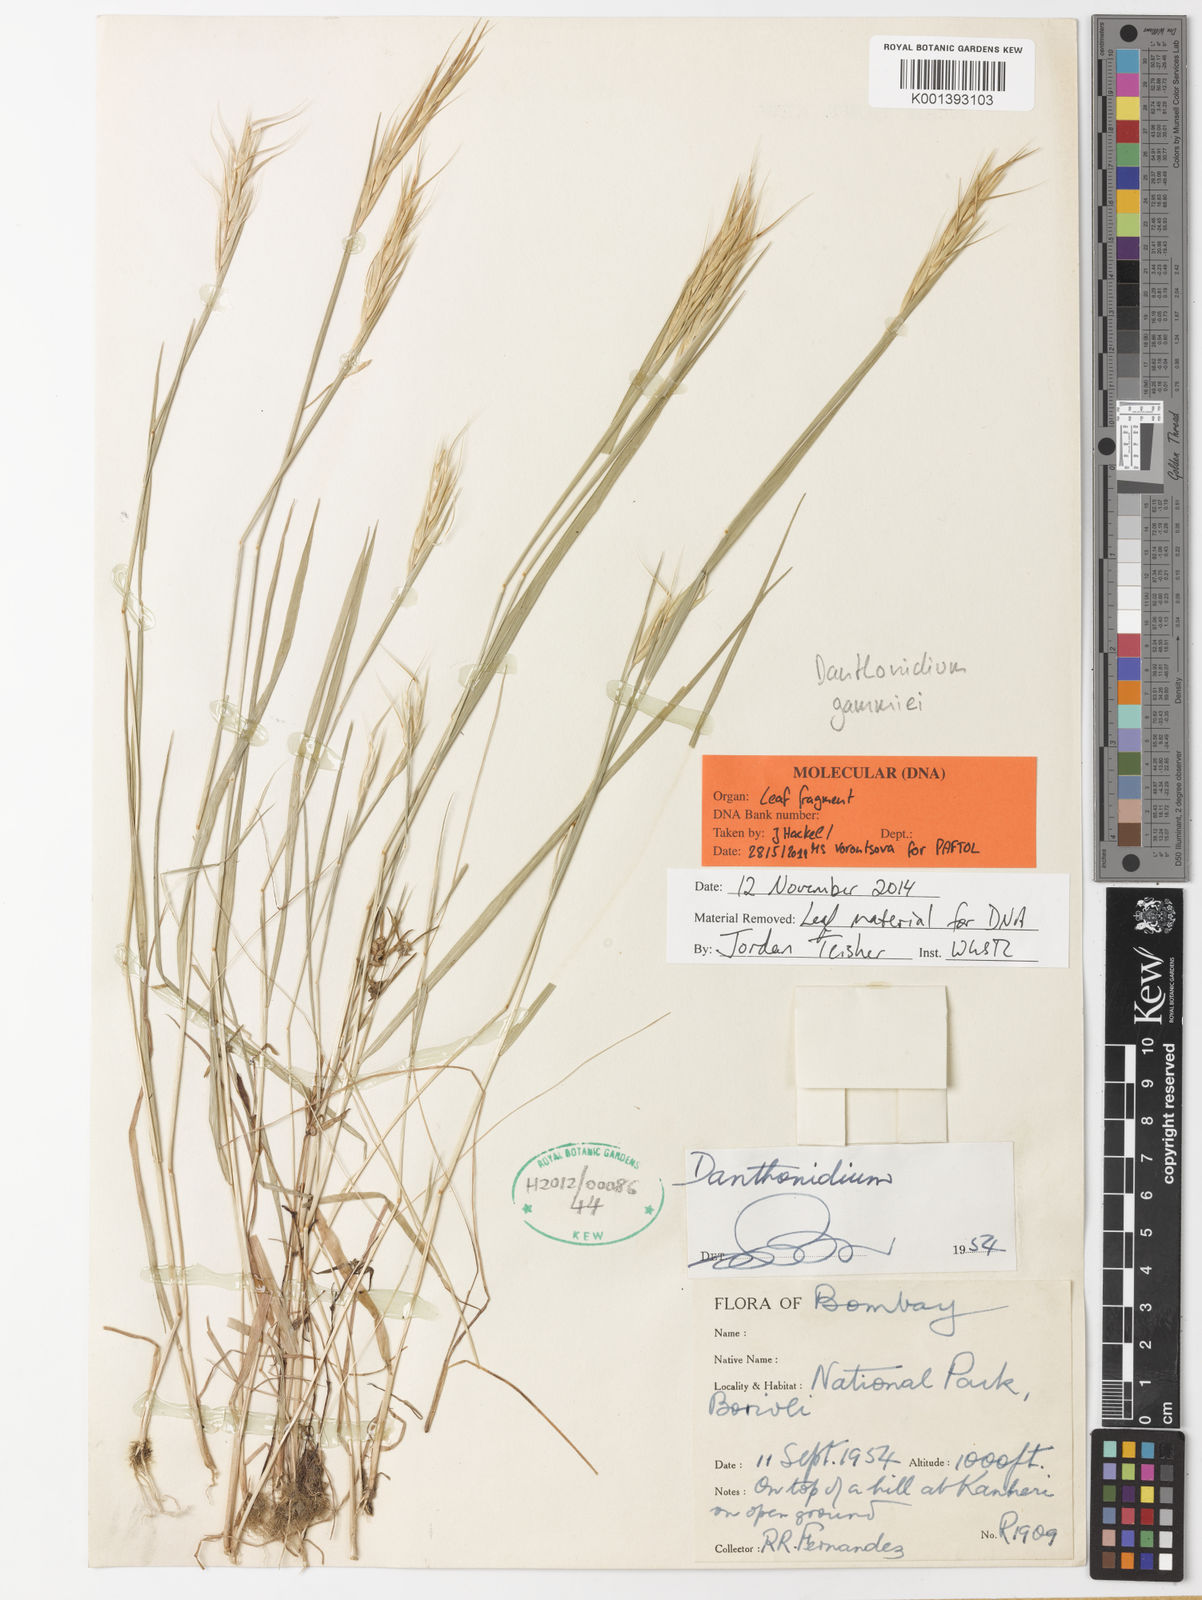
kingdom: Plantae
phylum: Tracheophyta
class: Liliopsida
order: Poales
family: Poaceae
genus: Danthonidium
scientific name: Danthonidium gammiei
